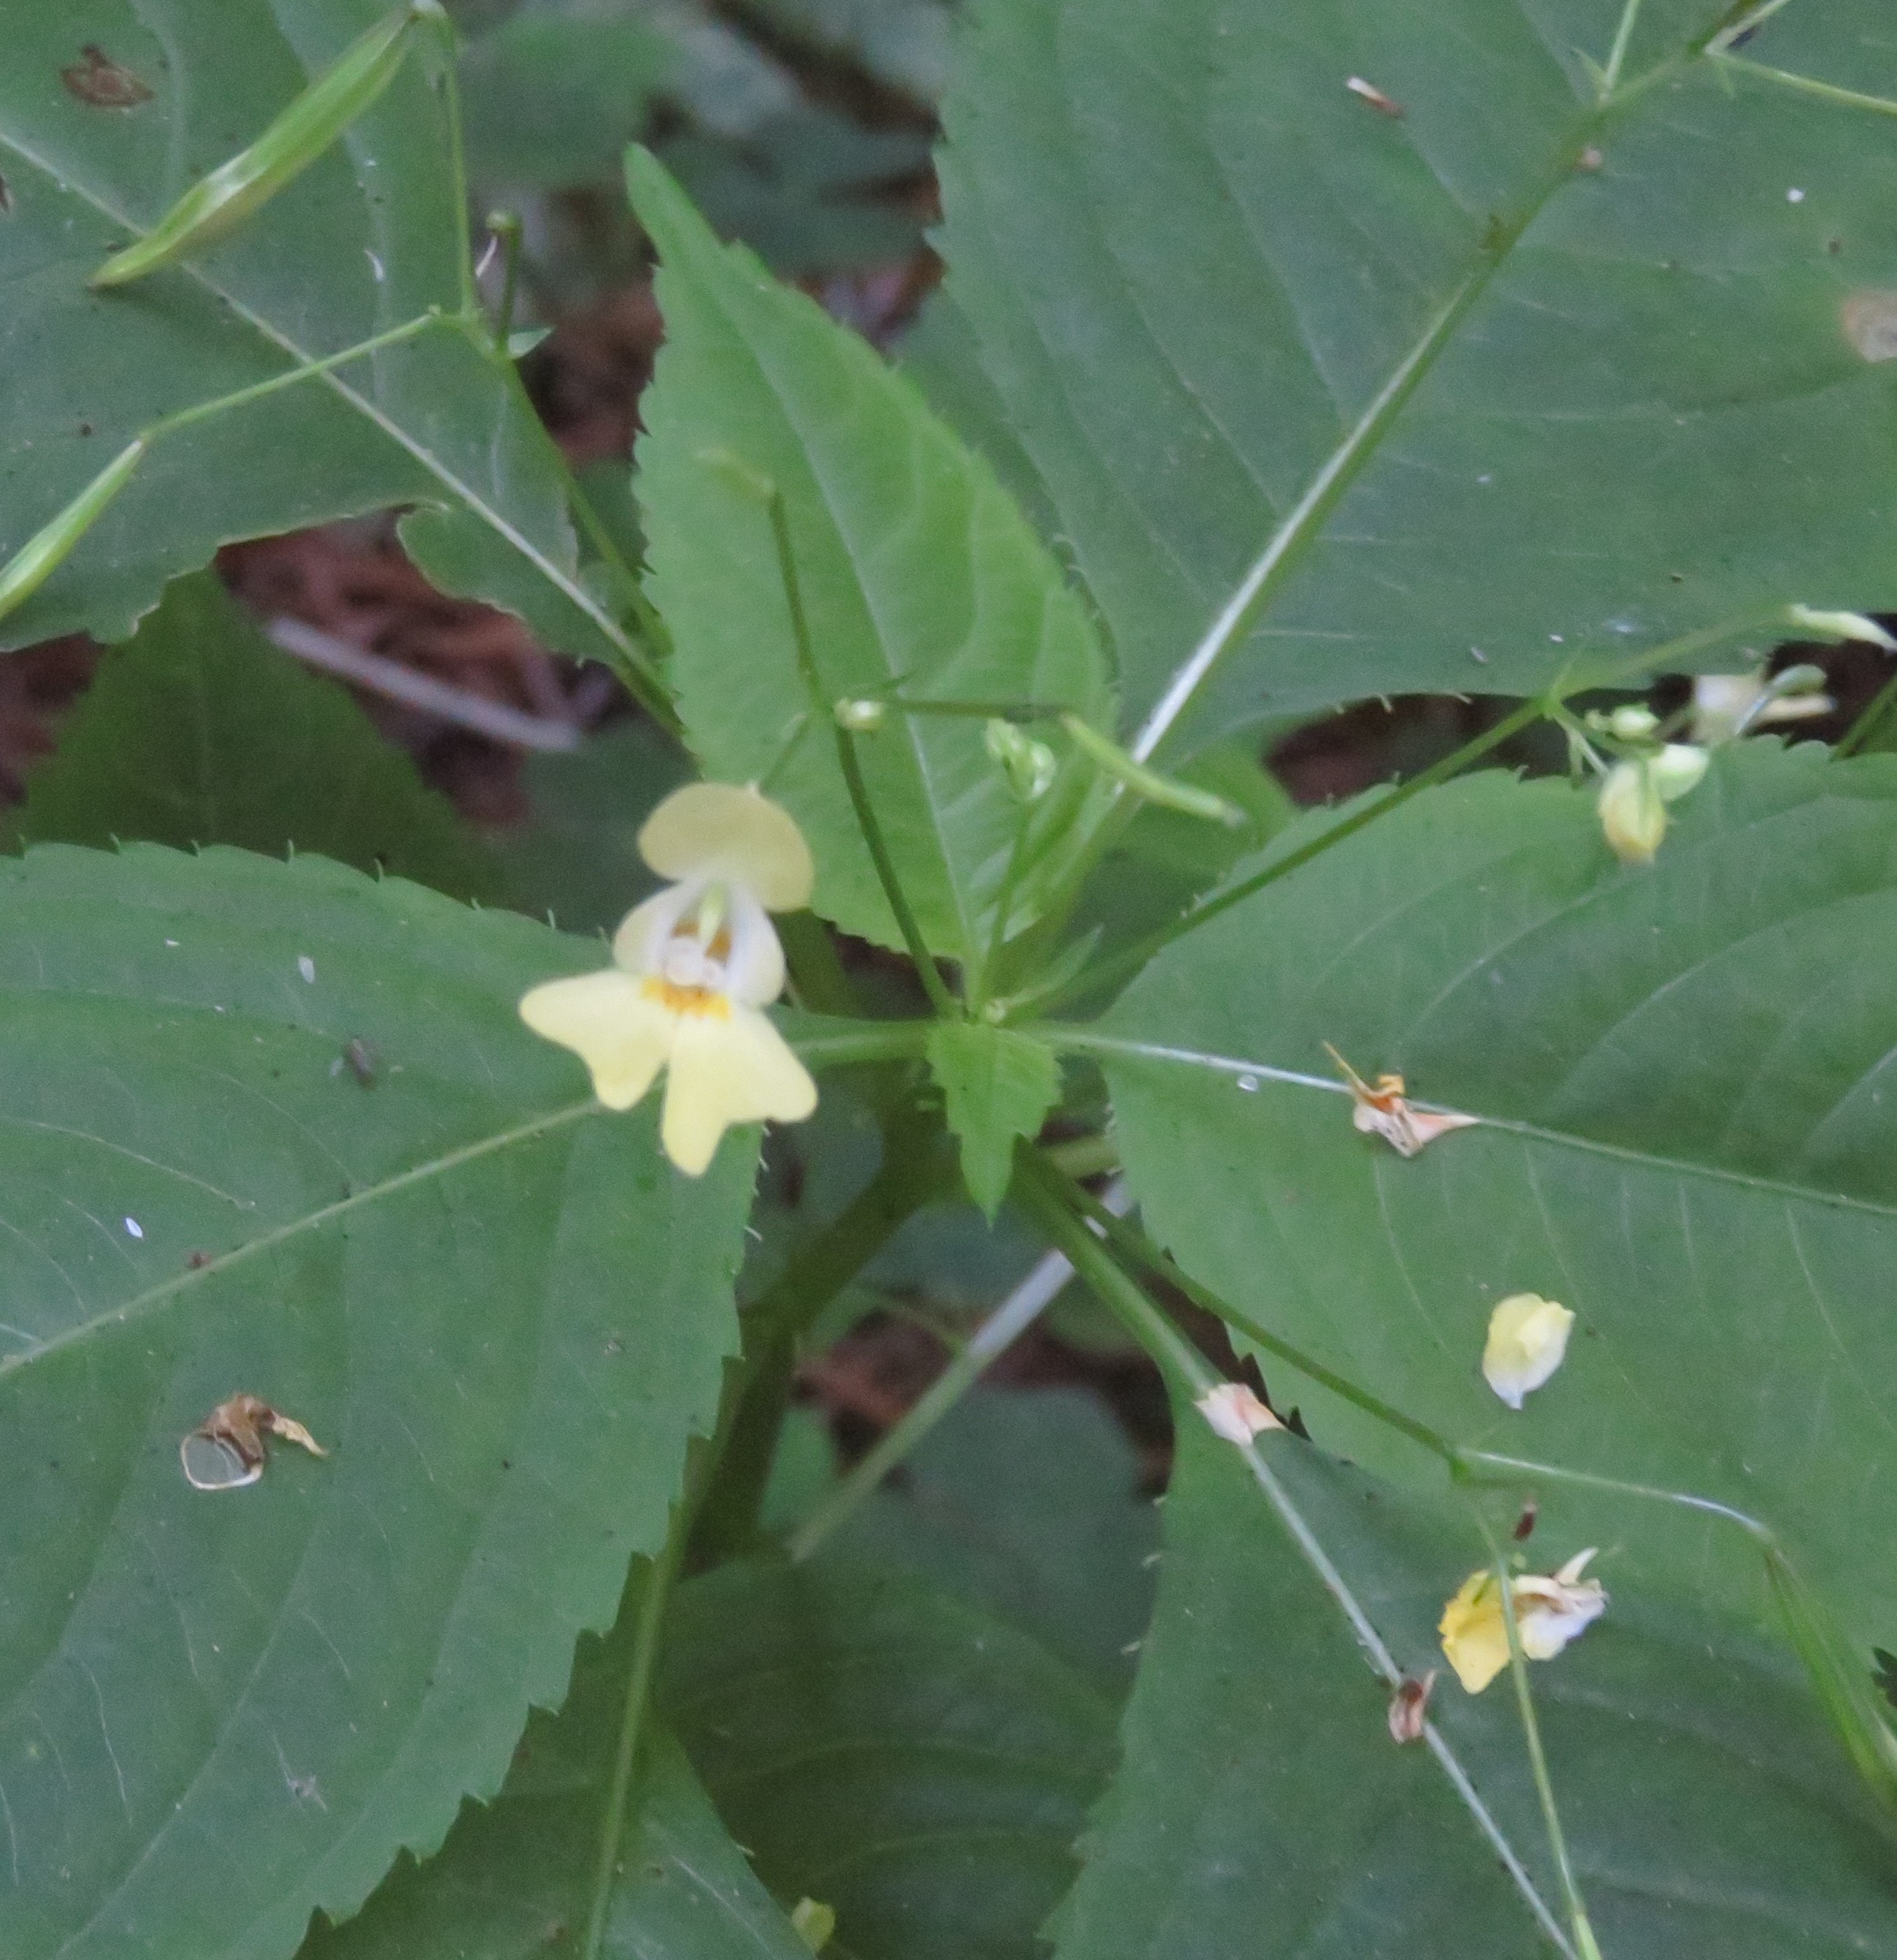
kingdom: Plantae
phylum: Tracheophyta
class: Magnoliopsida
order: Ericales
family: Balsaminaceae
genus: Impatiens
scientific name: Impatiens parviflora
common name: Småblomstret balsamin
